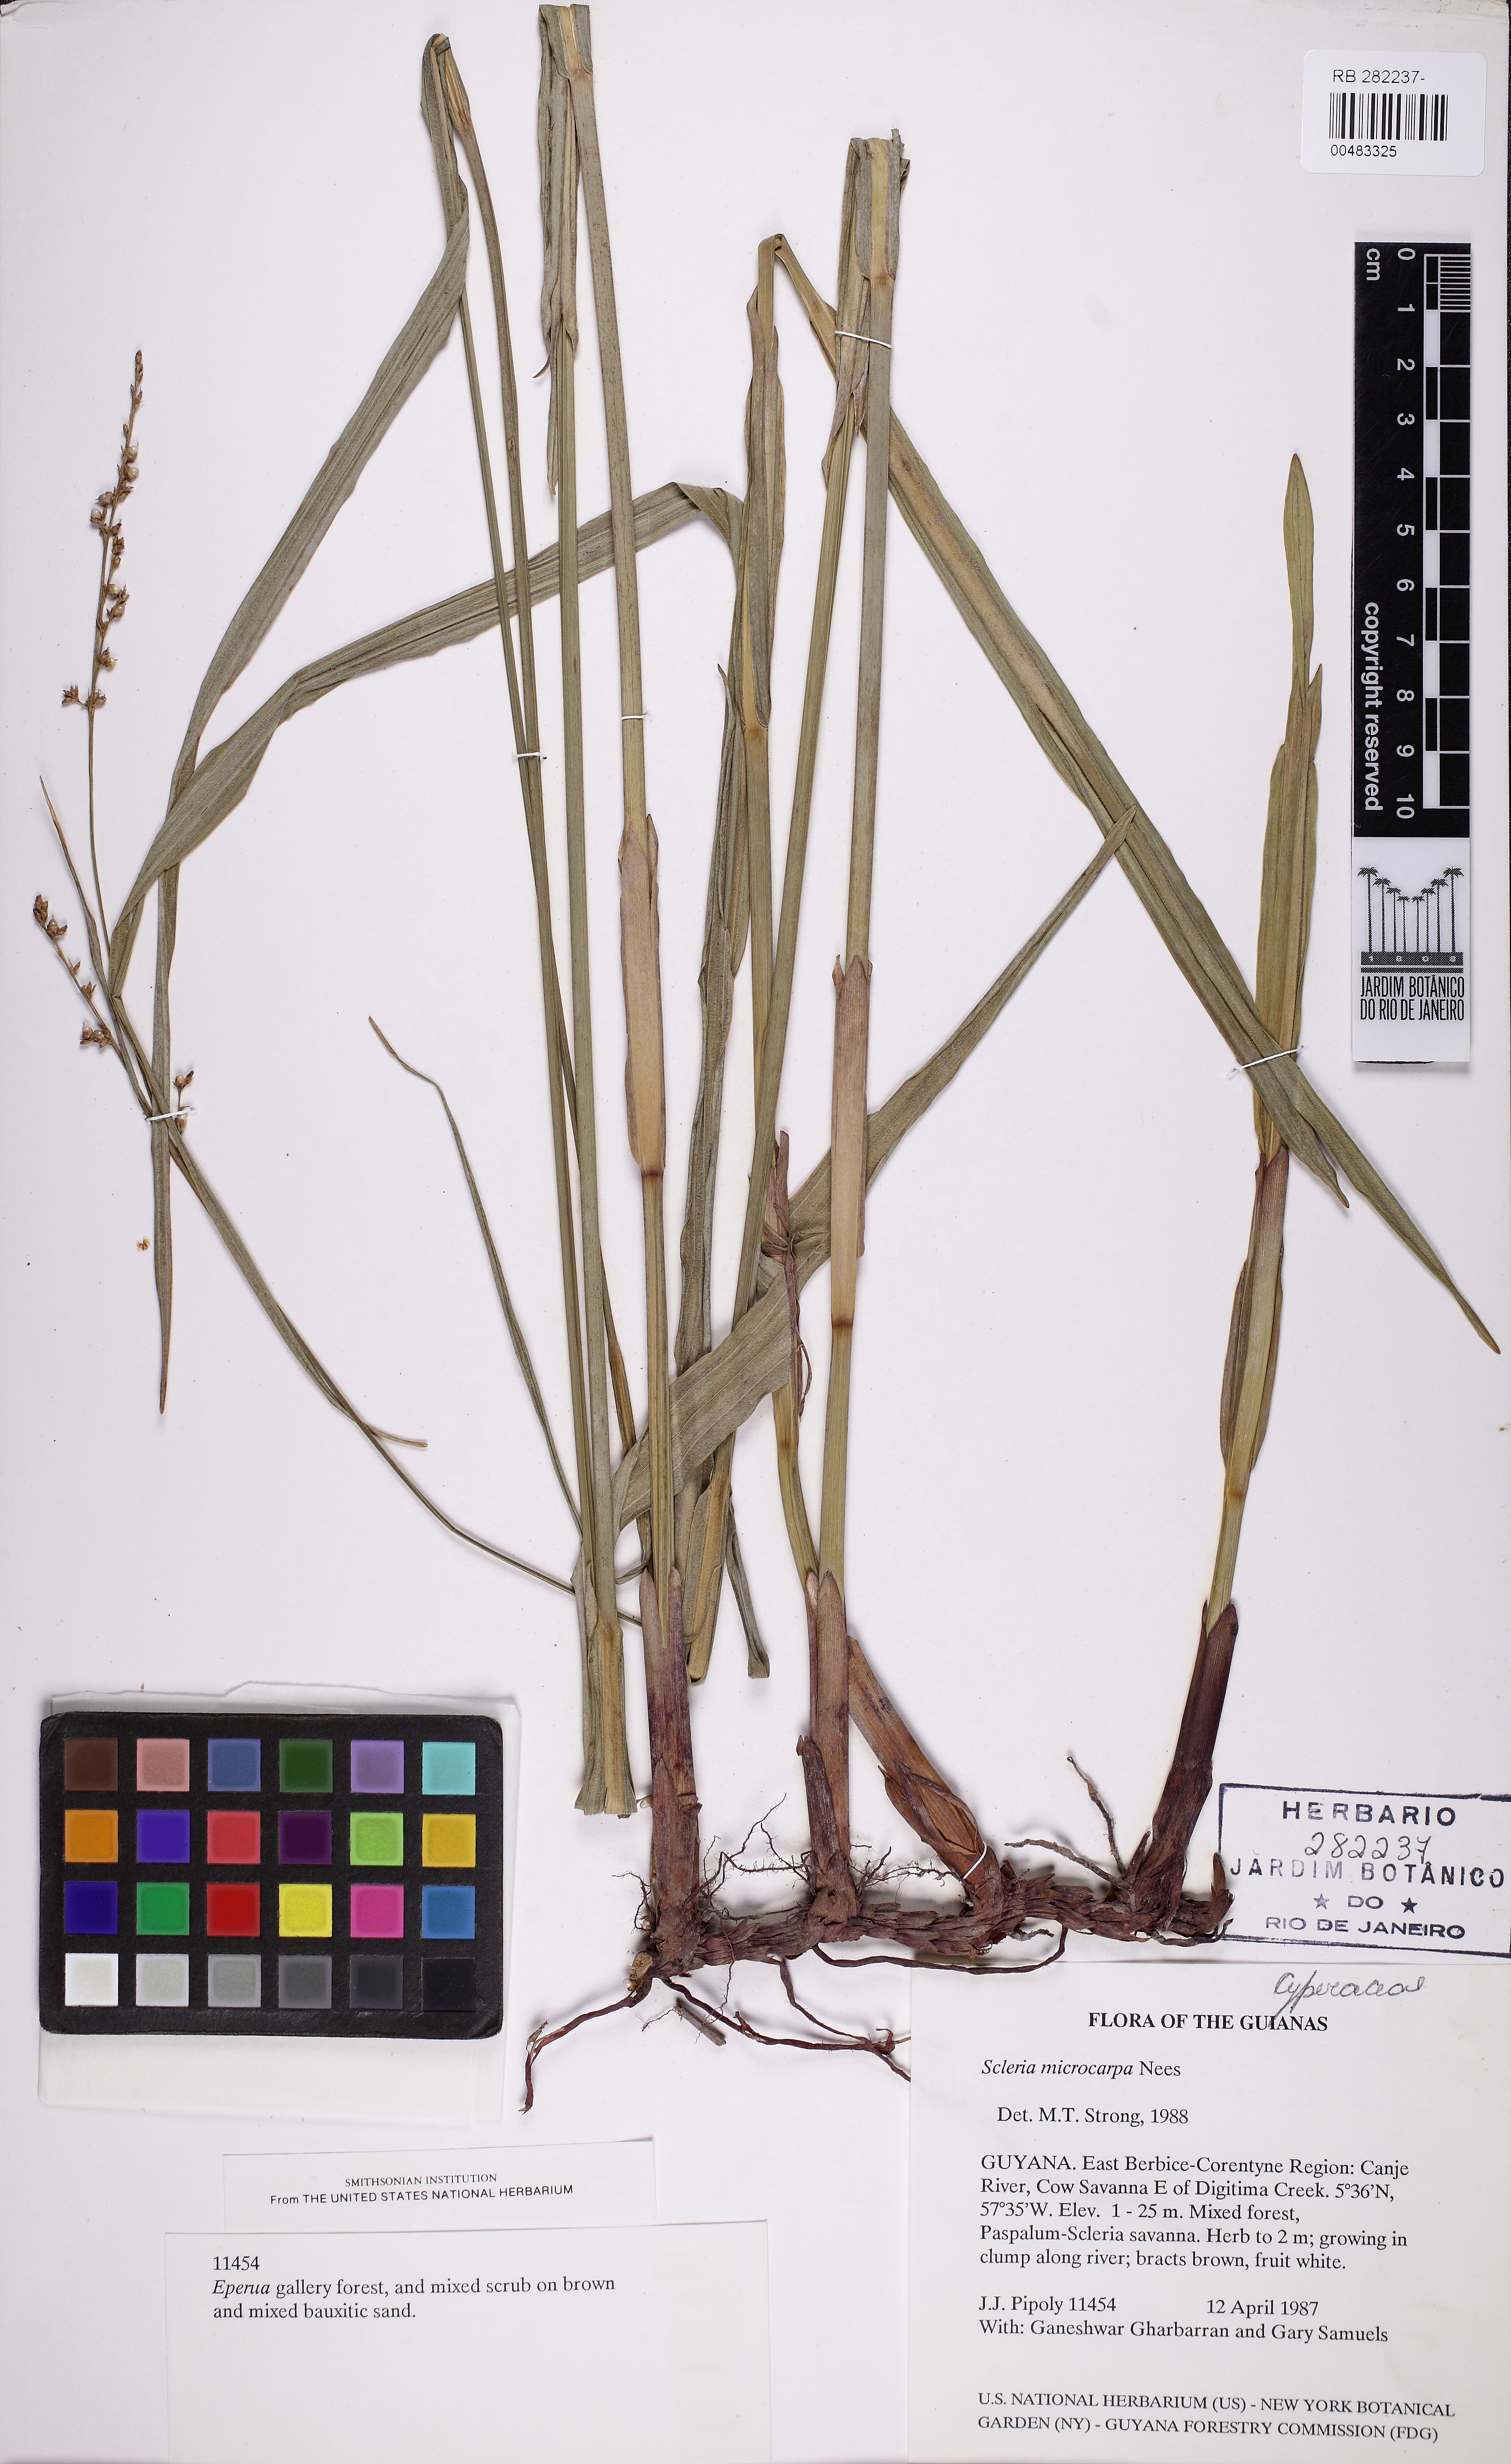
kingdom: Plantae
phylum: Tracheophyta
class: Liliopsida
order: Poales
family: Cyperaceae
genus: Scleria
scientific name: Scleria microcarpa
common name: Tropical nutrush
